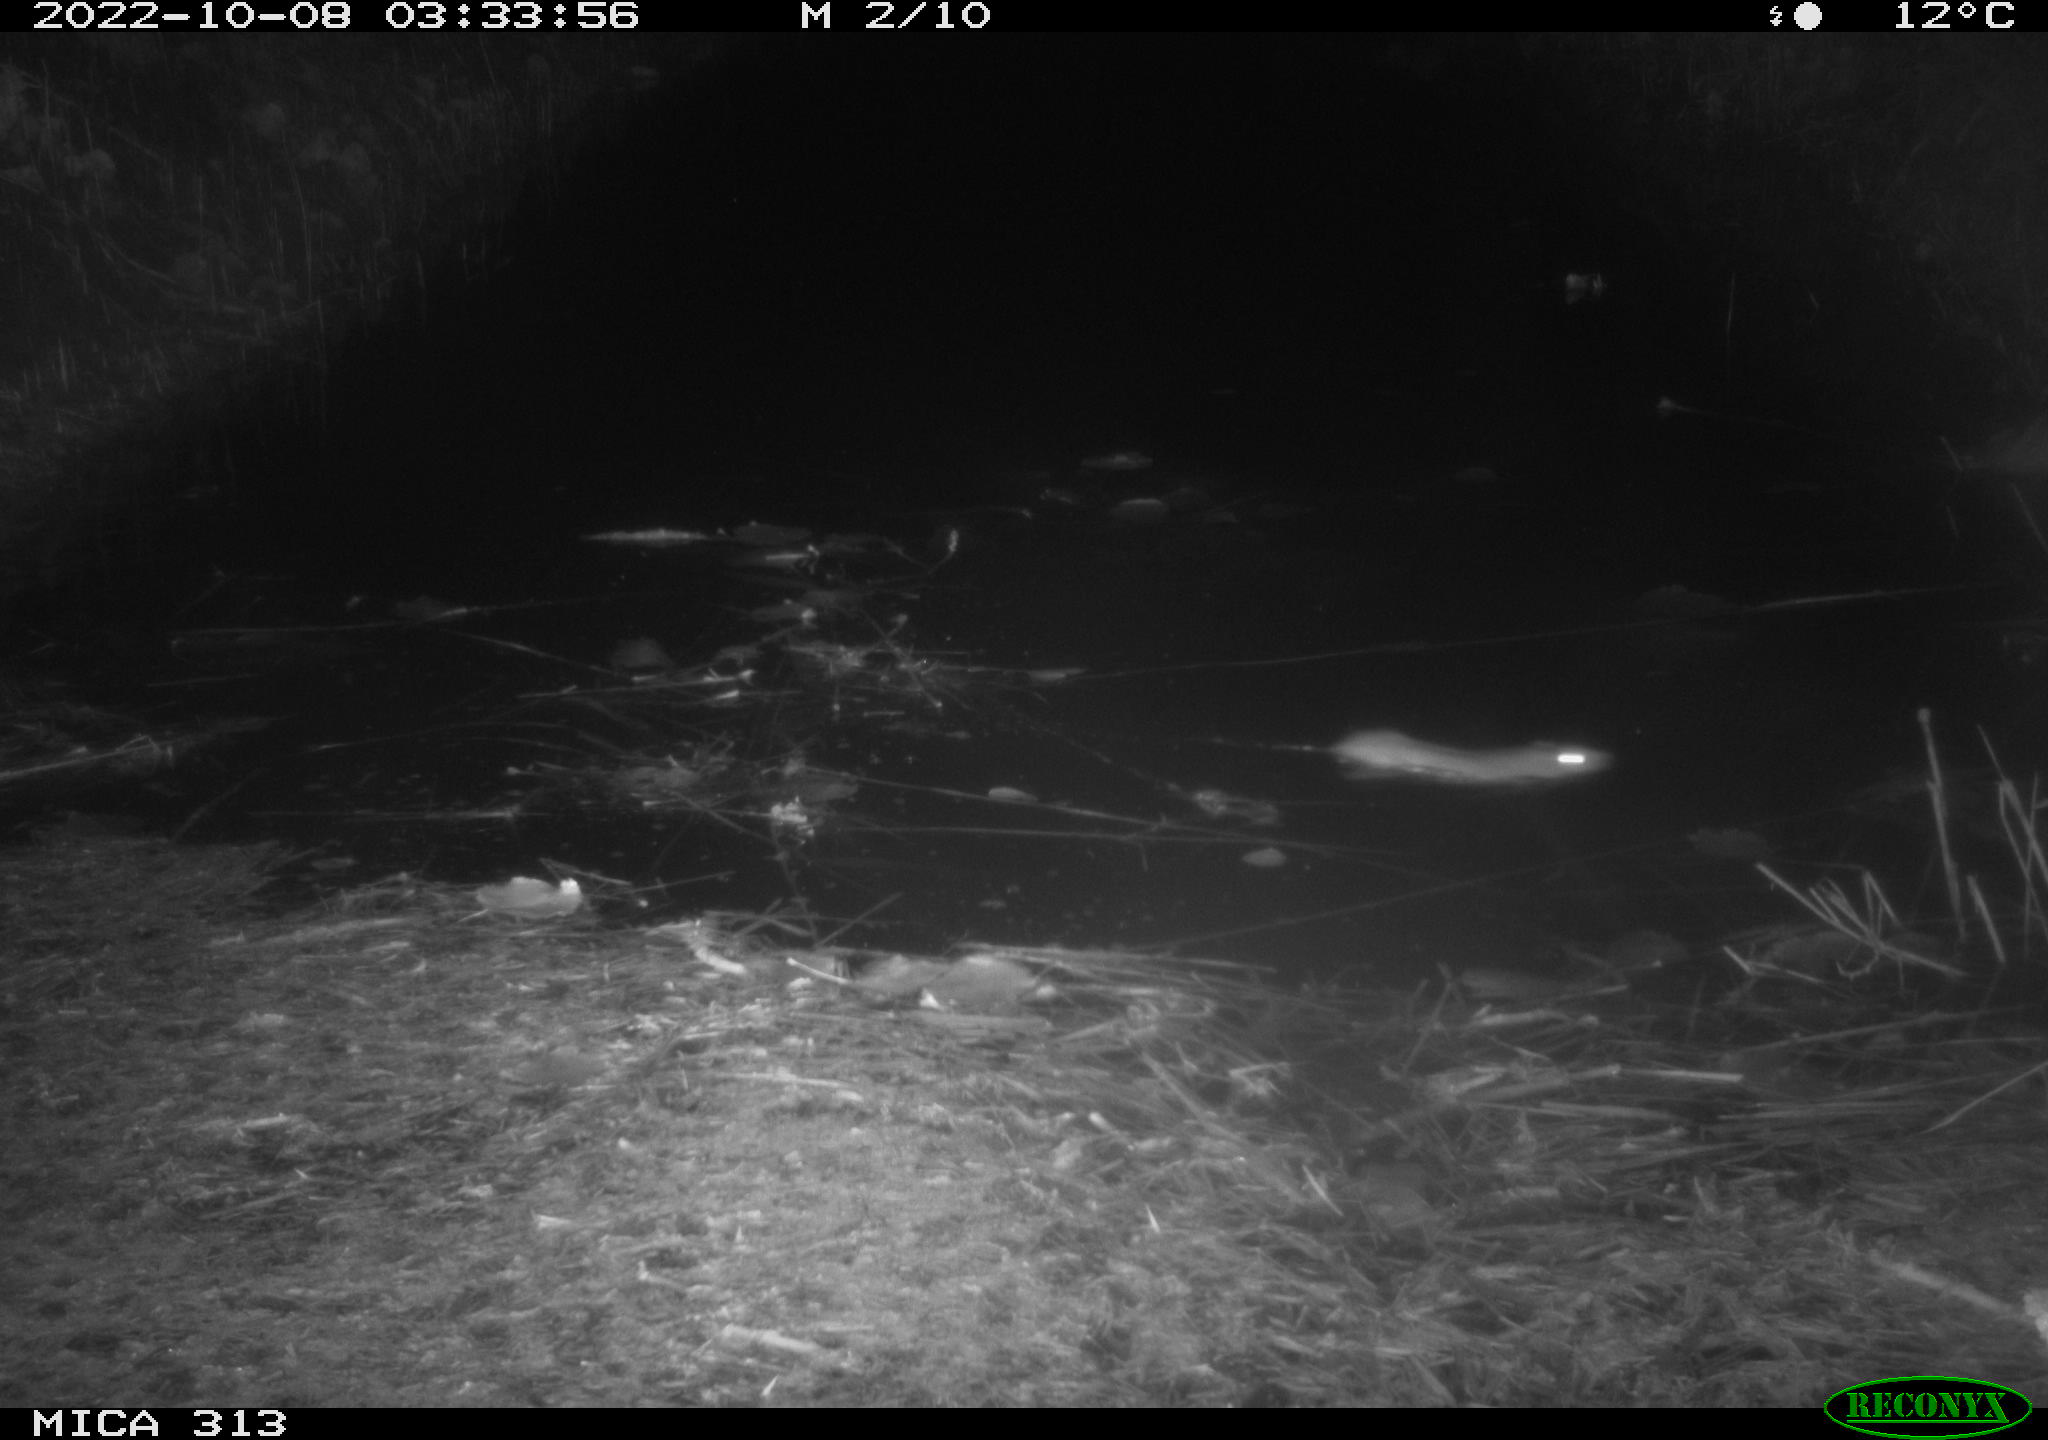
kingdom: Animalia
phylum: Chordata
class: Mammalia
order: Rodentia
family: Muridae
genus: Rattus
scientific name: Rattus norvegicus
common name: Brown rat
